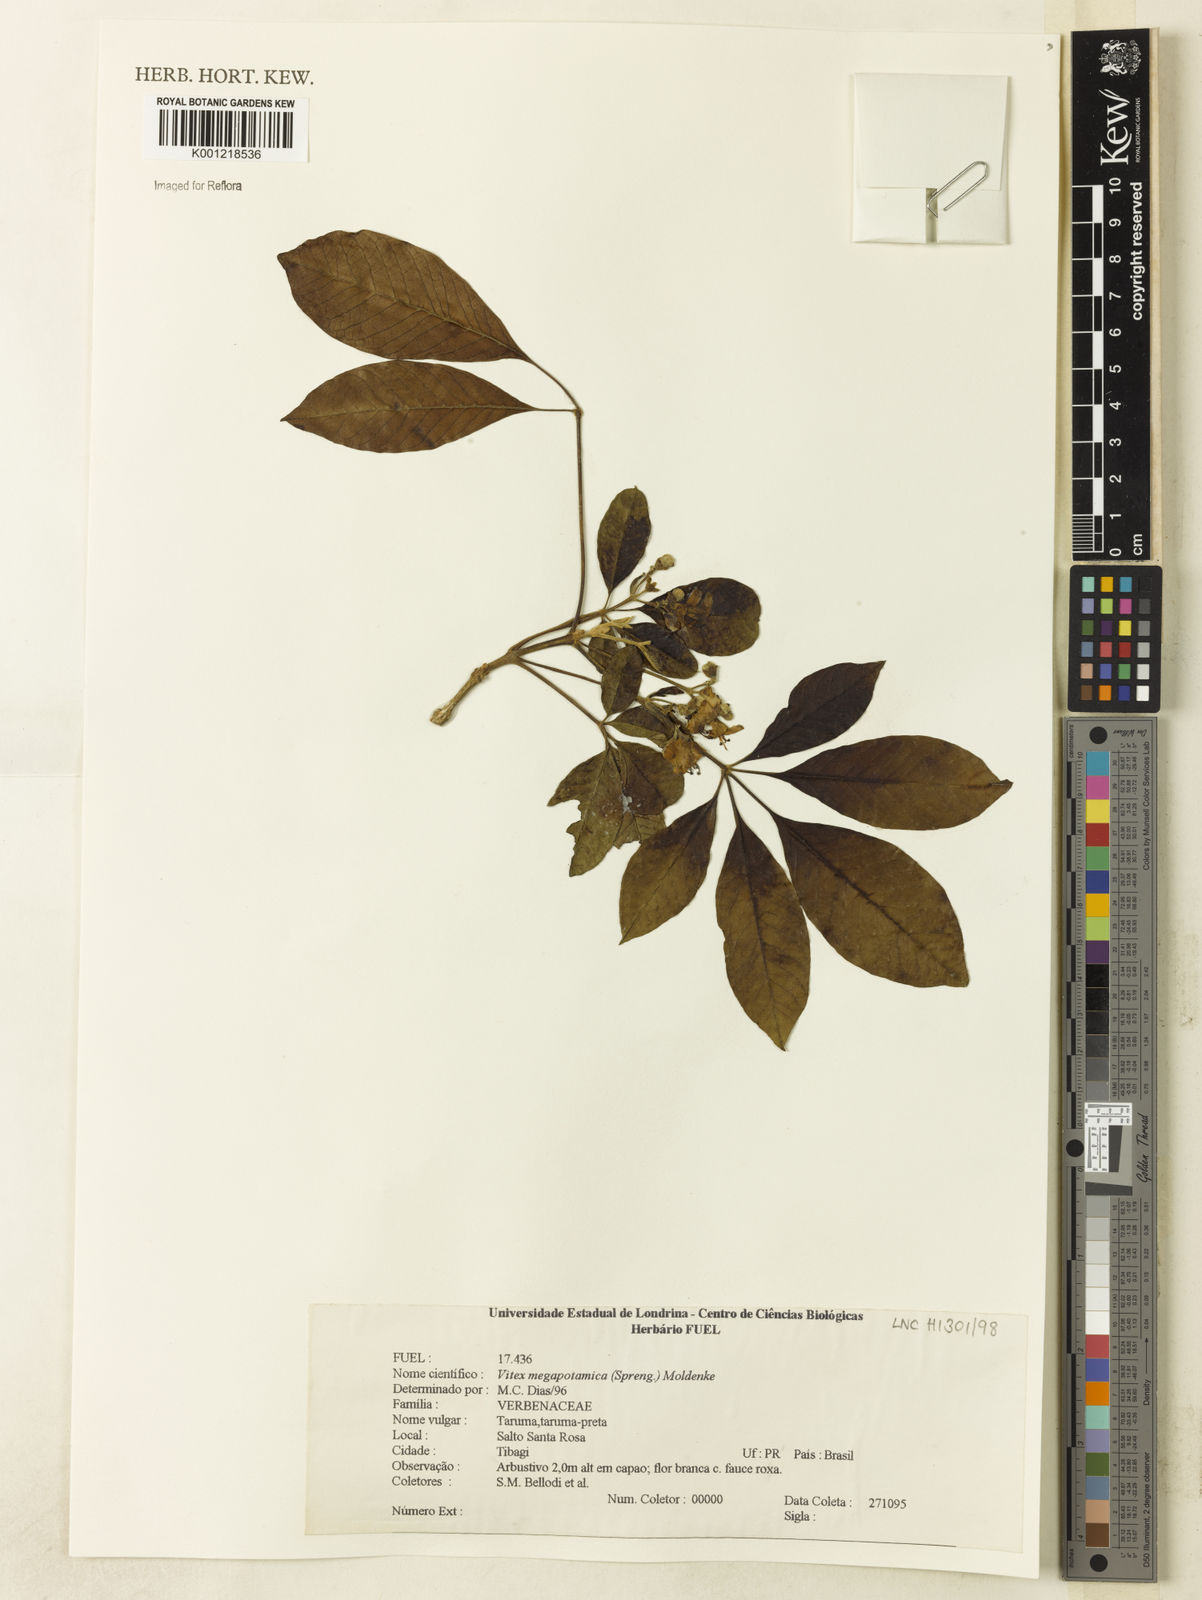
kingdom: Plantae
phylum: Tracheophyta
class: Magnoliopsida
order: Lamiales
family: Lamiaceae
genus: Vitex
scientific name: Vitex megapotamica
